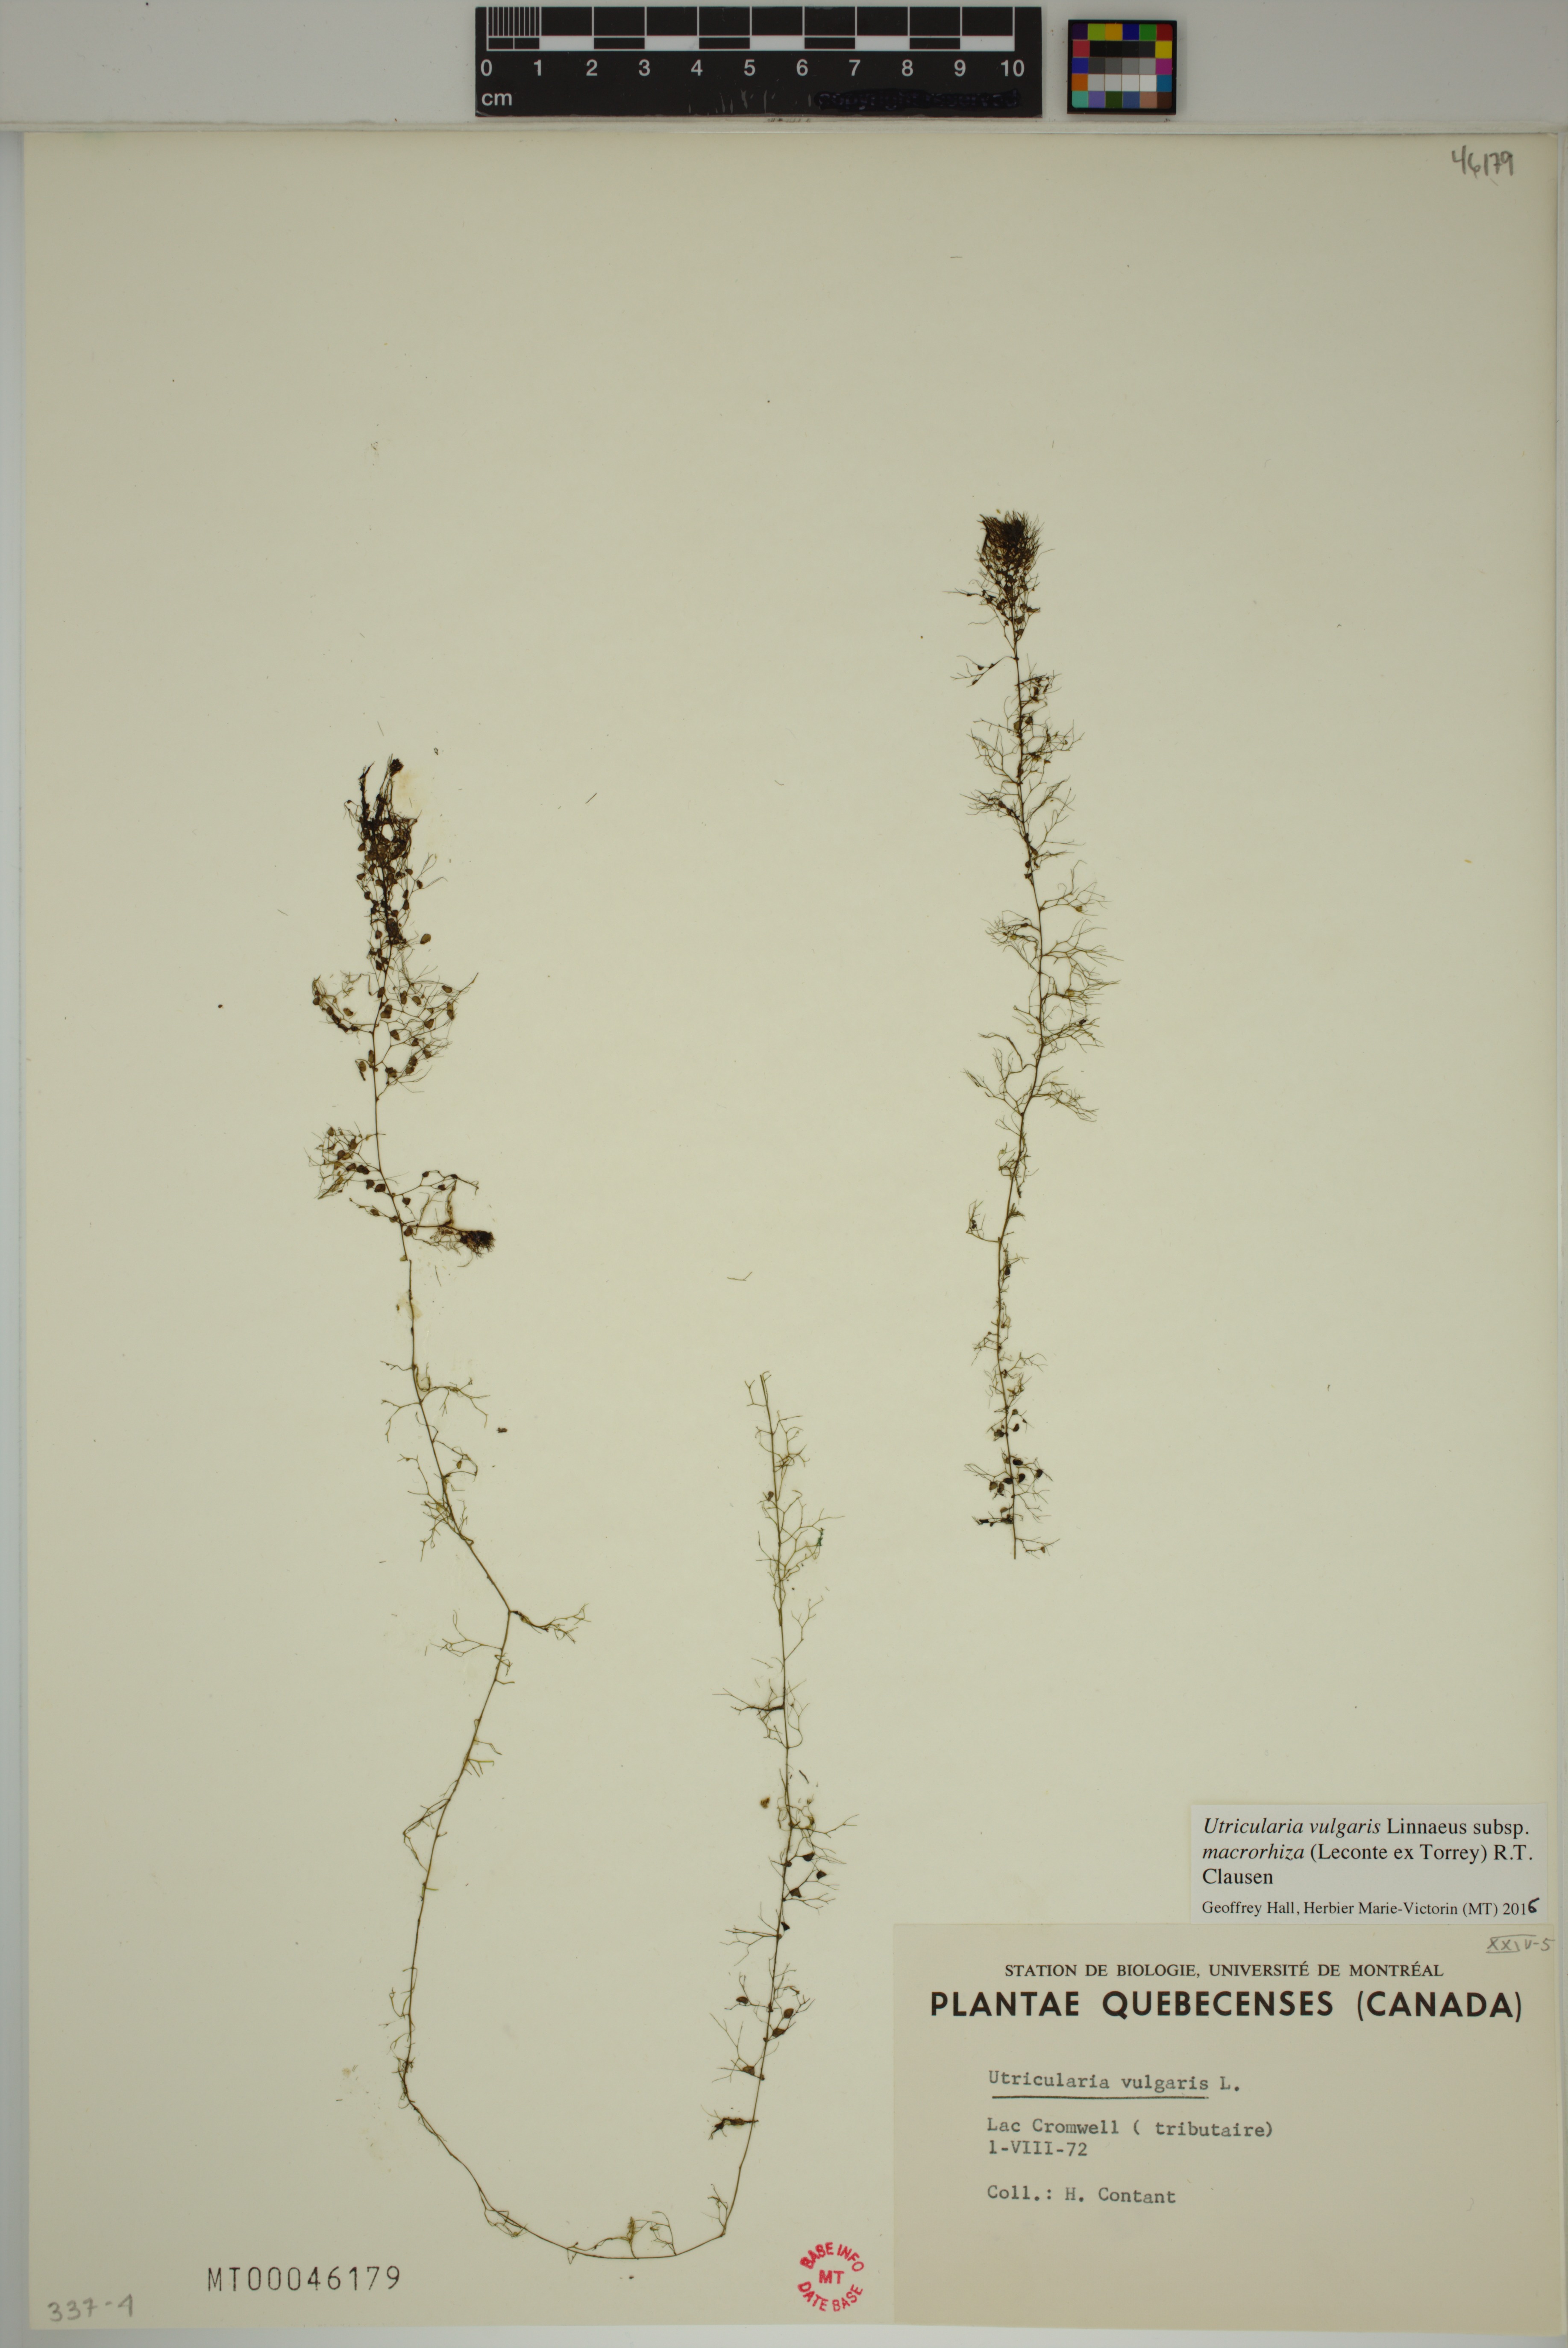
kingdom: Plantae
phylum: Tracheophyta
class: Magnoliopsida
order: Lamiales
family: Lentibulariaceae
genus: Utricularia
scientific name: Utricularia macrorhiza
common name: Common bladderwort
